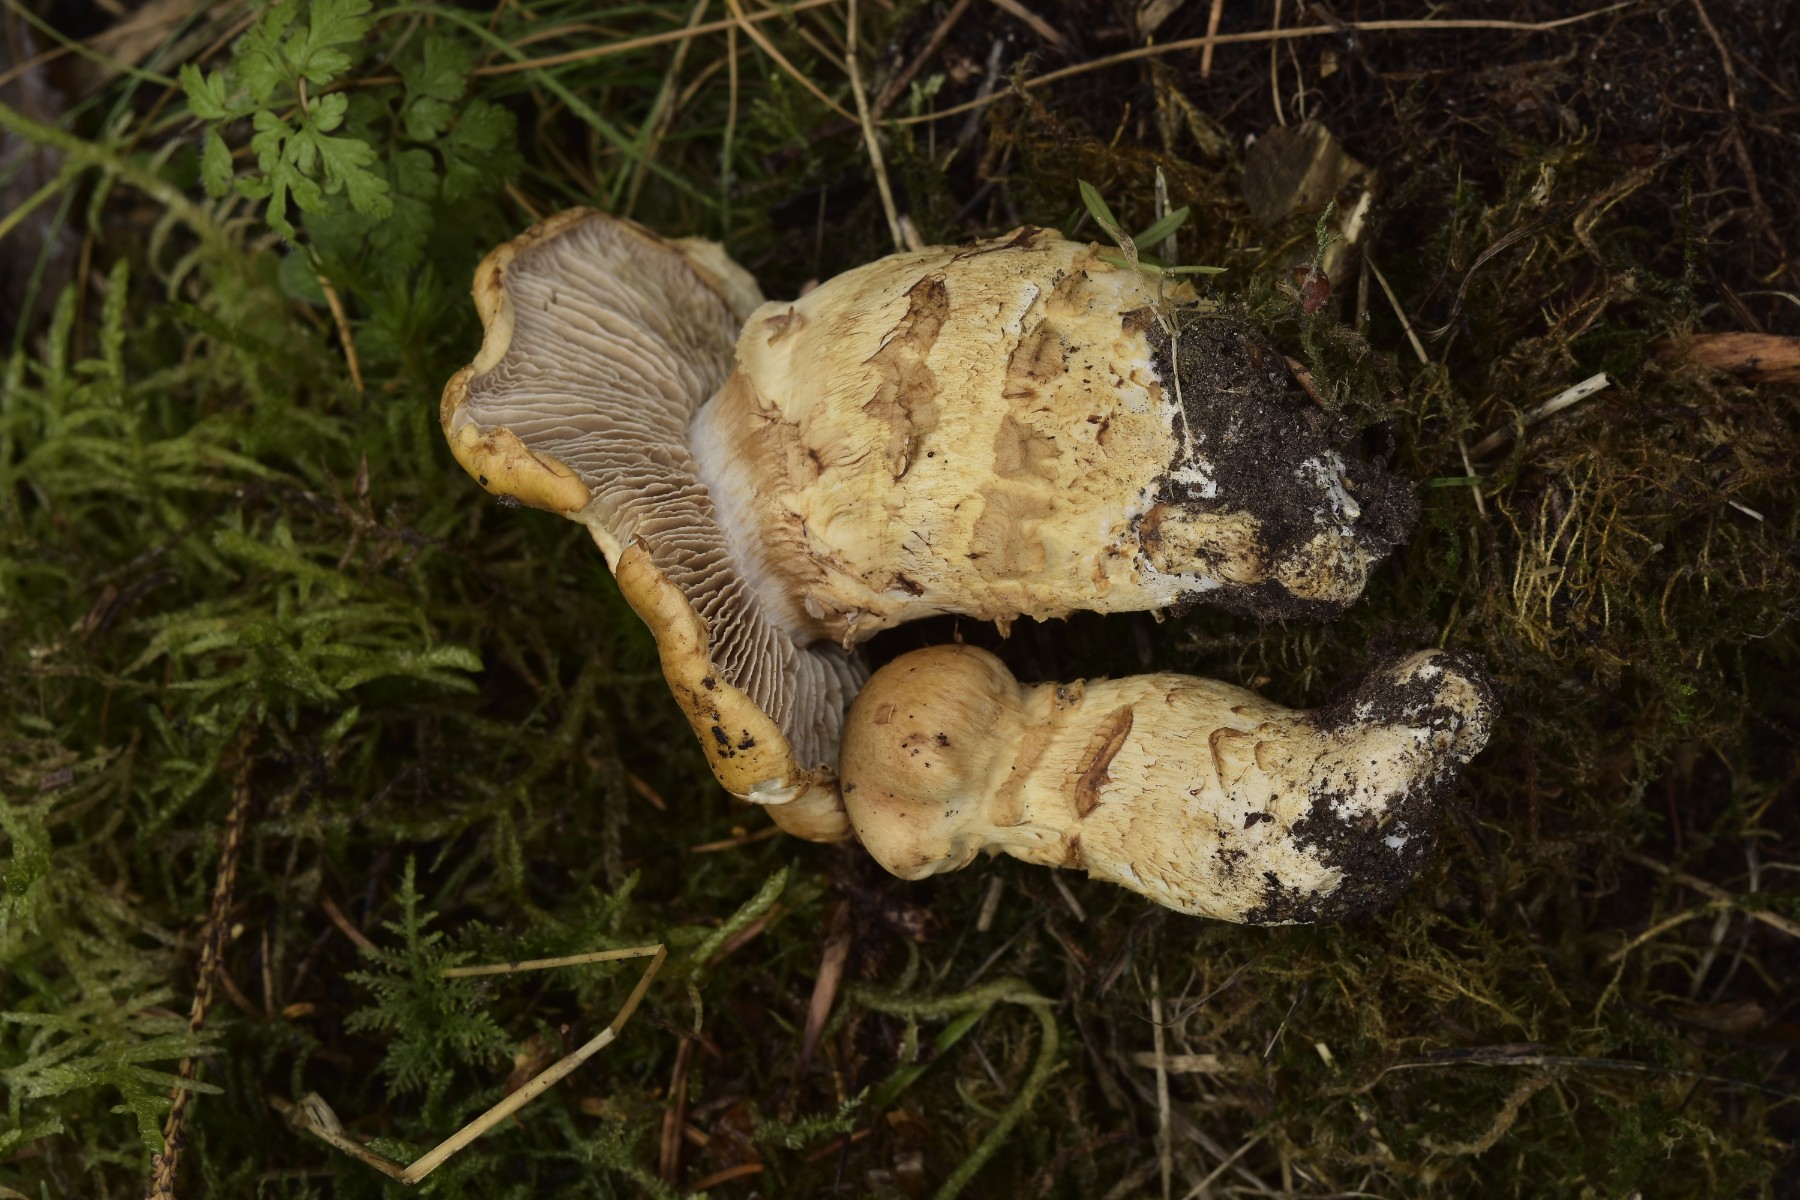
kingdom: Fungi
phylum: Basidiomycota
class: Agaricomycetes
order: Agaricales
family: Cortinariaceae
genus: Phlegmacium
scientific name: Phlegmacium triumphans
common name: gulbæltet slørhat
